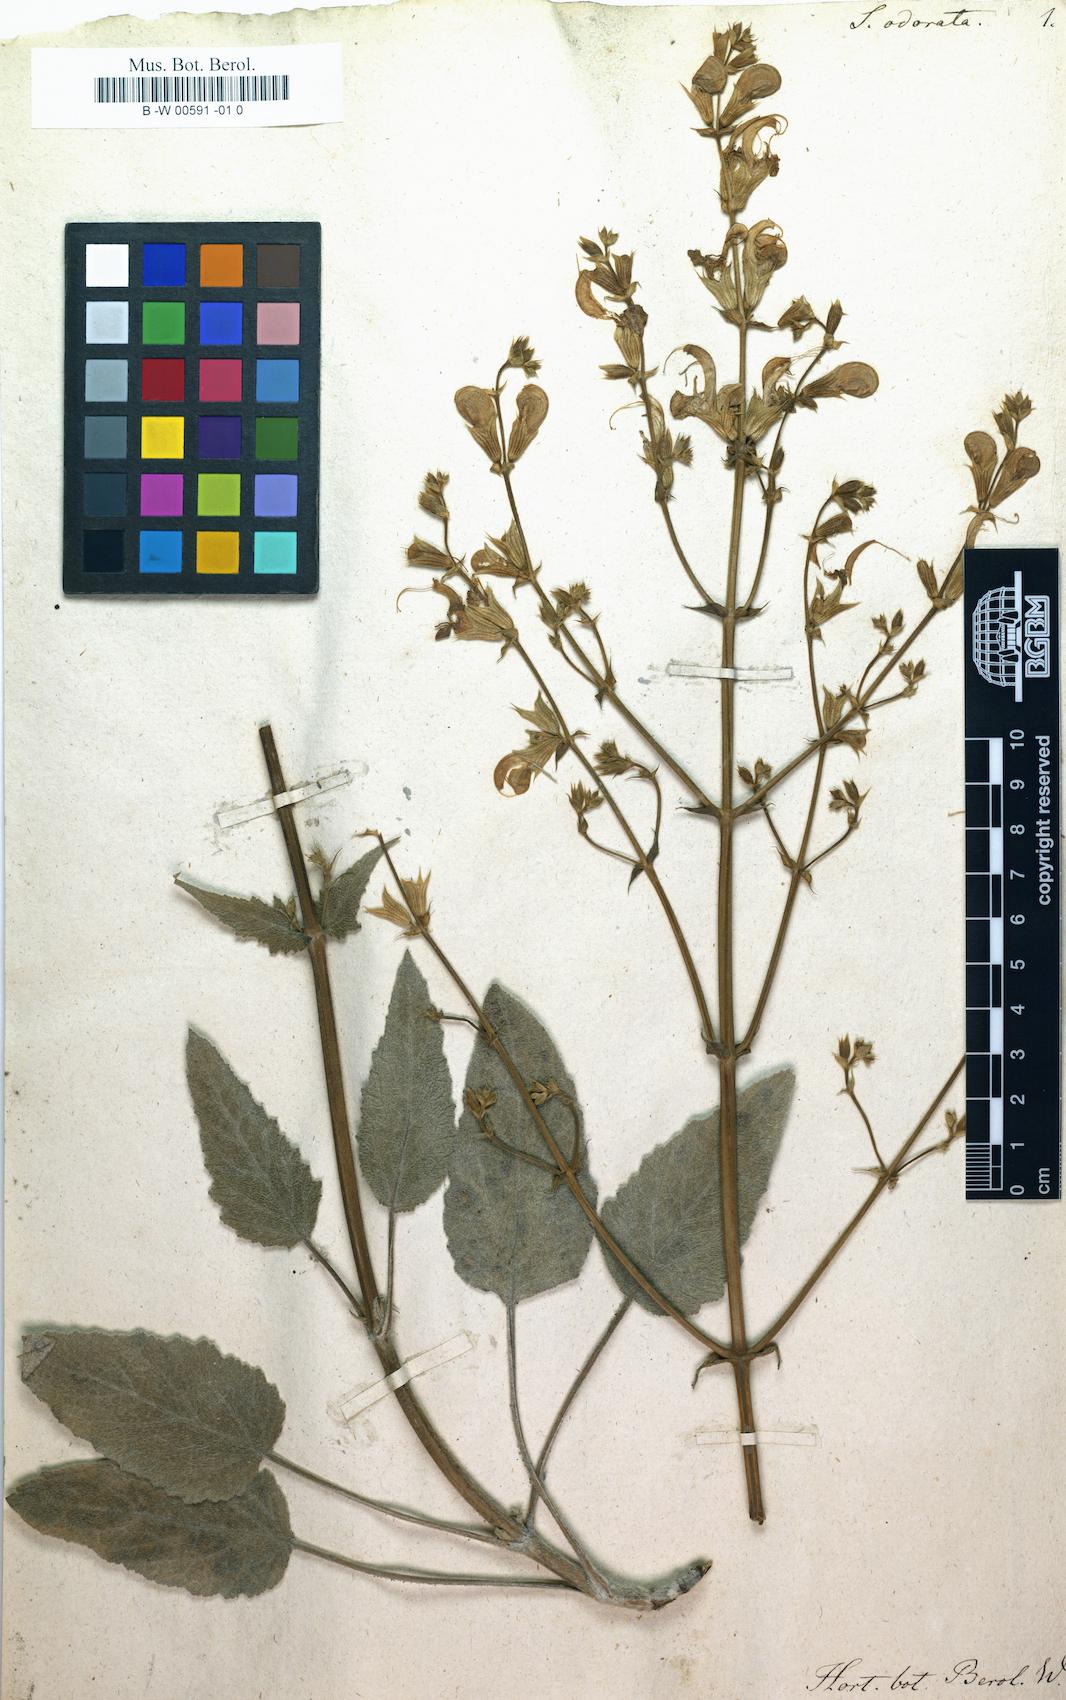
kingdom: Plantae
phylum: Tracheophyta
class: Magnoliopsida
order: Lamiales
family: Lamiaceae
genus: Salvia
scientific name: Salvia candidissima
